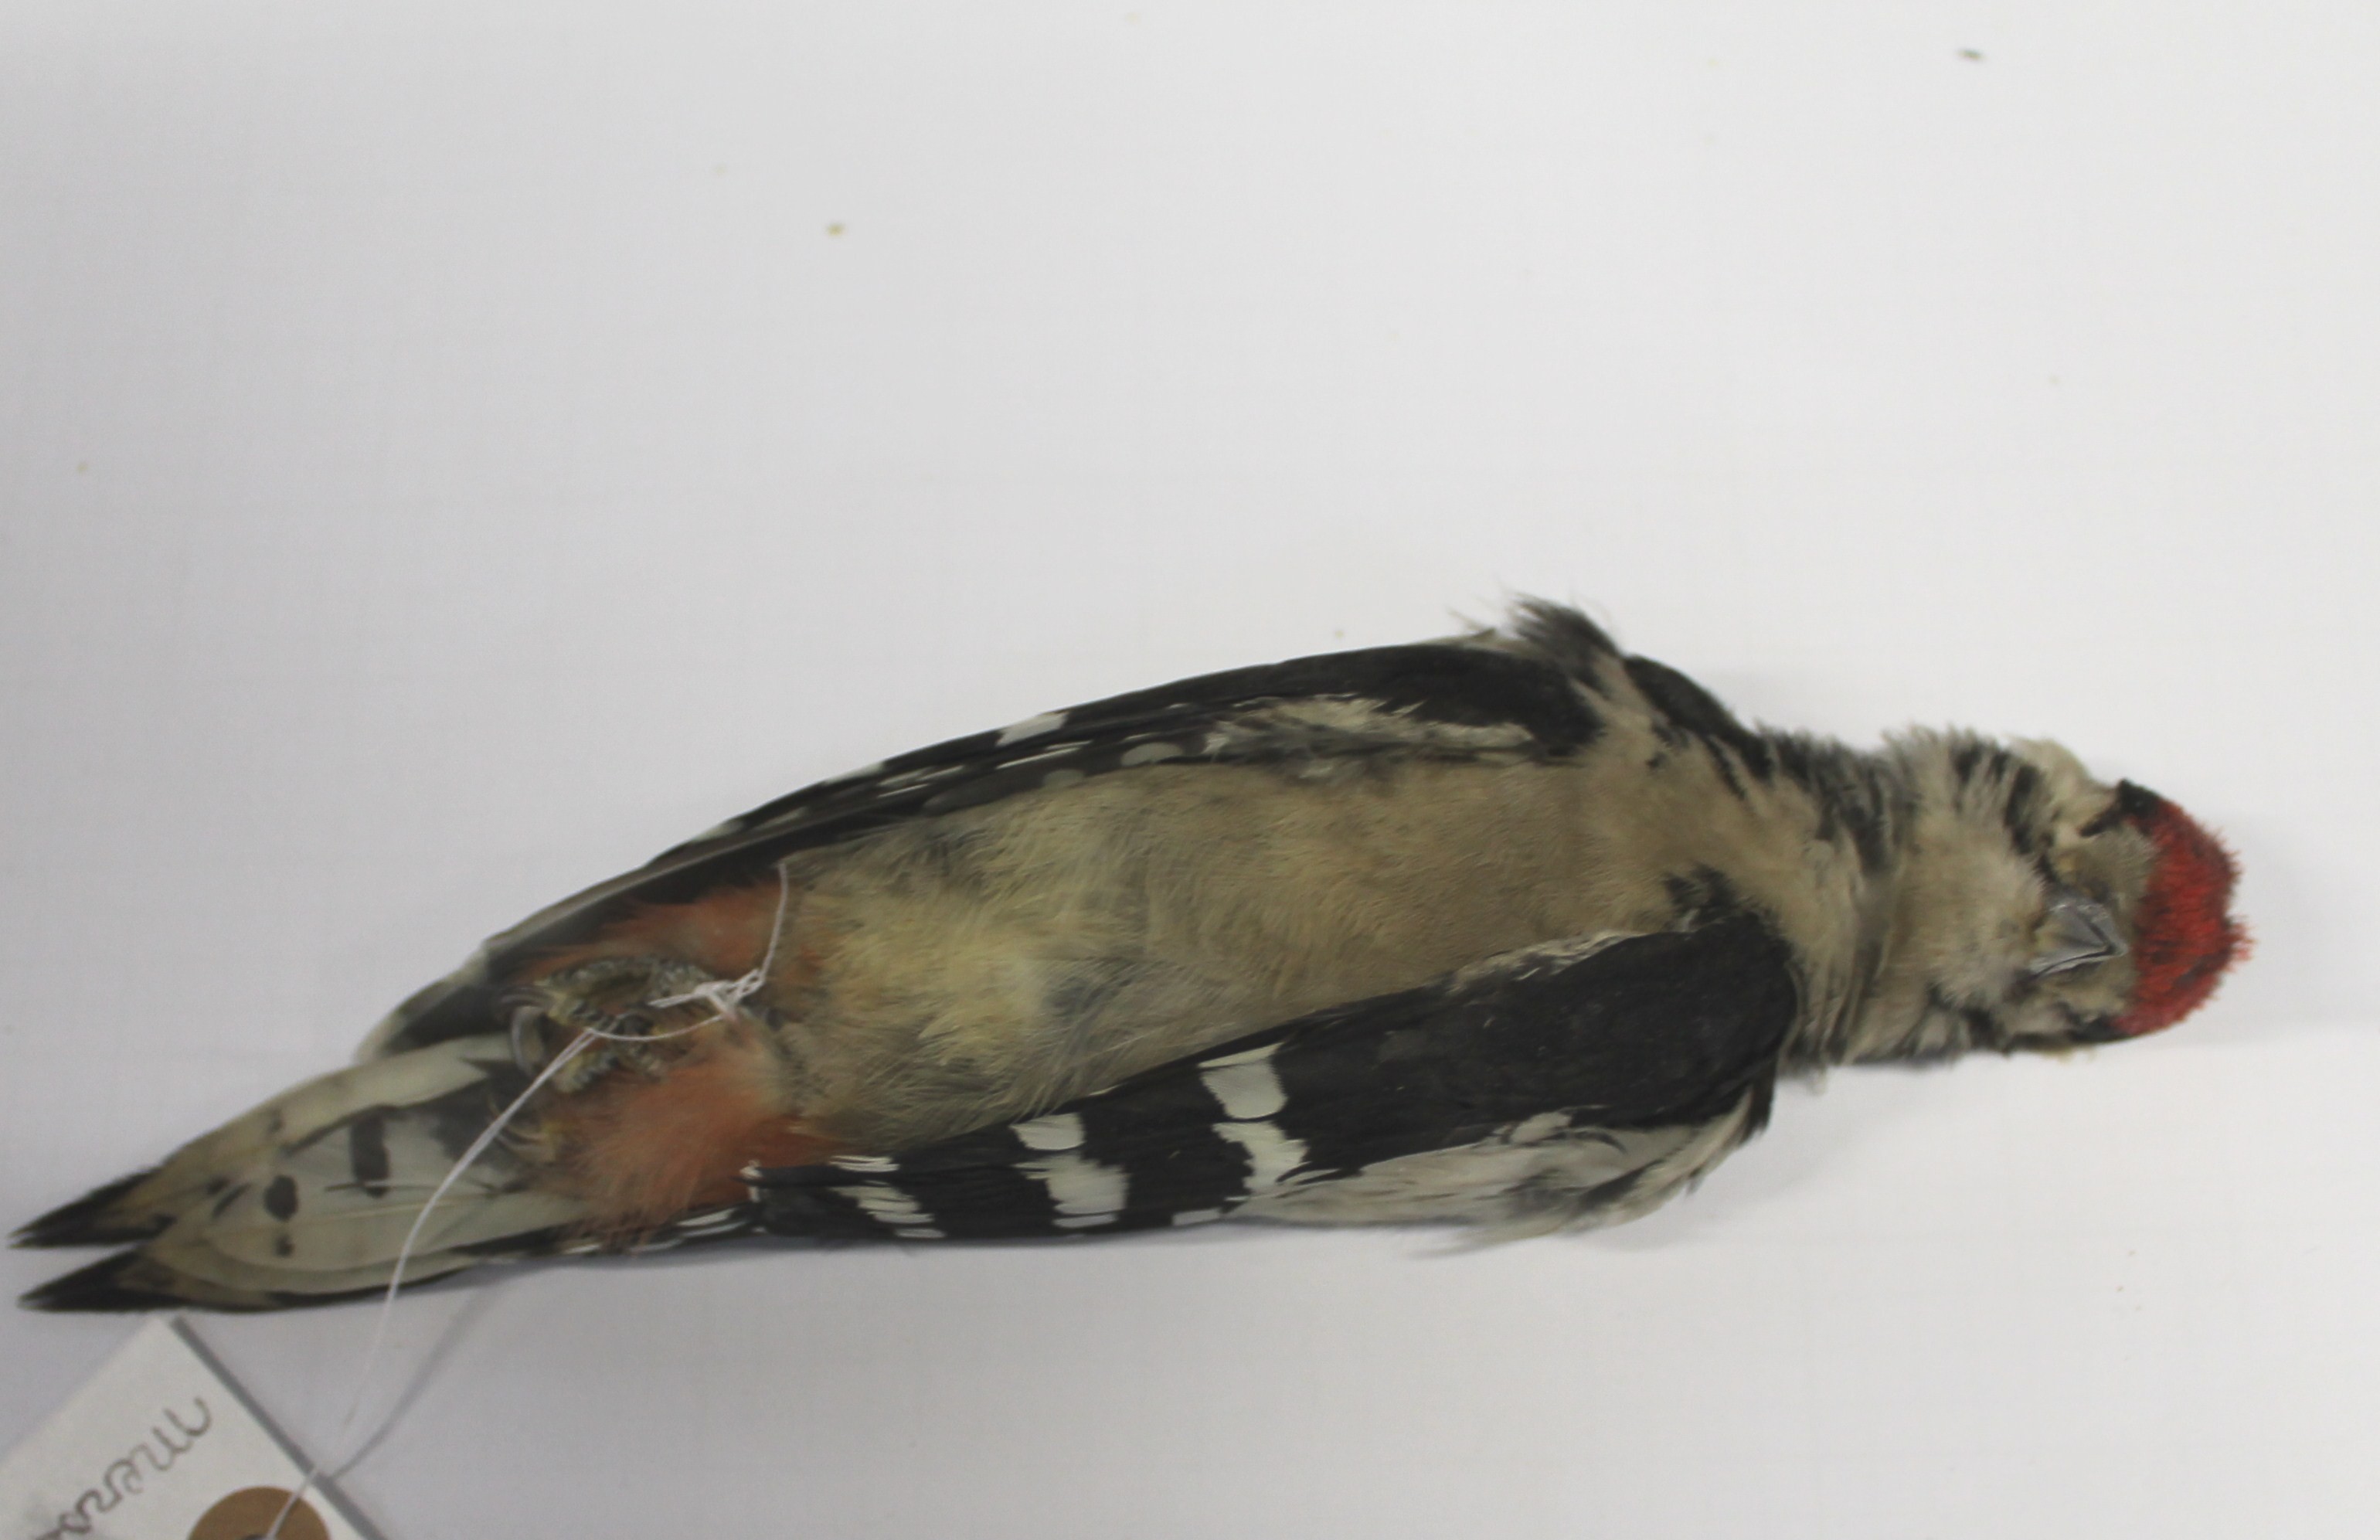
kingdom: Animalia
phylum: Chordata
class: Aves
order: Piciformes
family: Picidae
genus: Dendrocopos
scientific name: Dendrocopos major
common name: Great spotted woodpecker
